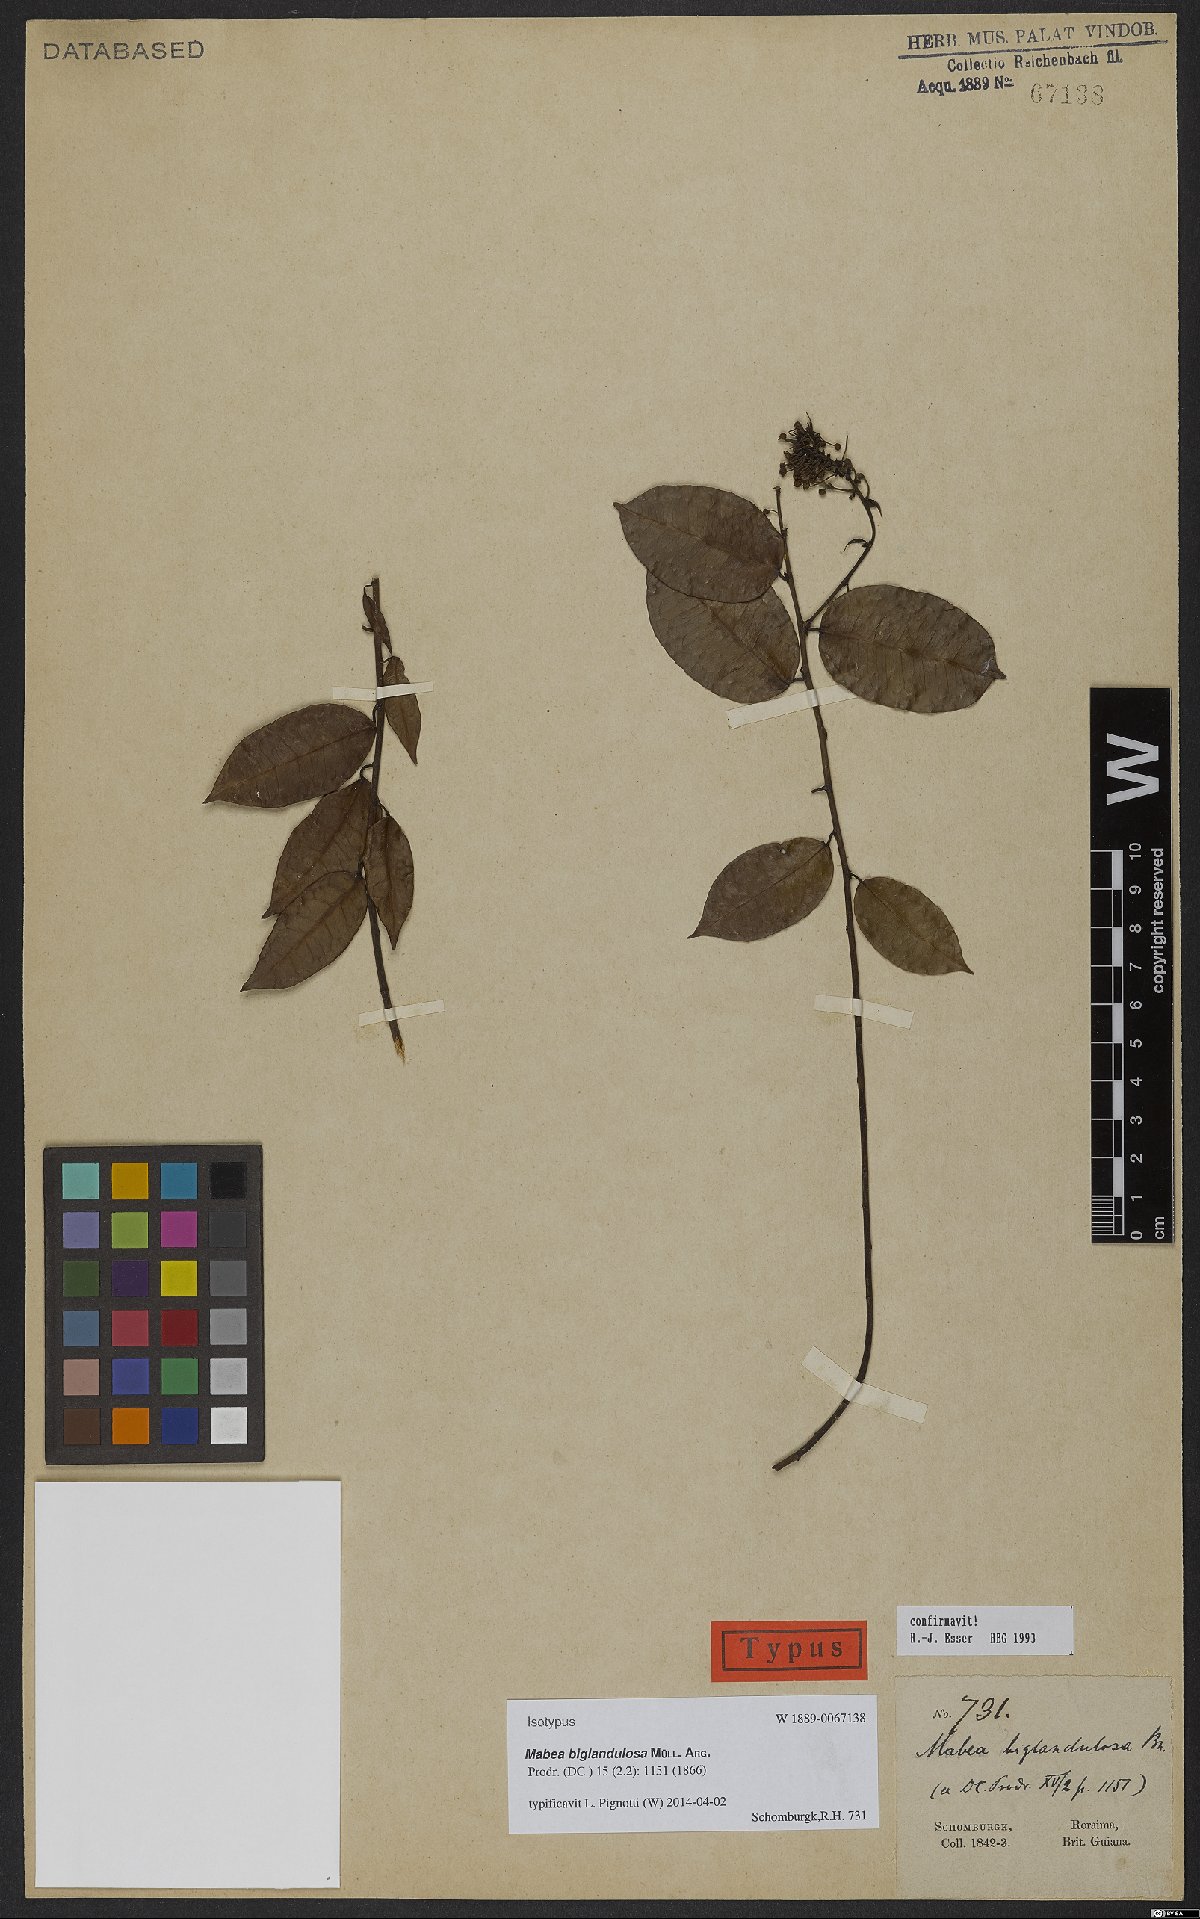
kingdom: Plantae
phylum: Tracheophyta
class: Magnoliopsida
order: Malpighiales
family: Euphorbiaceae
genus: Mabea
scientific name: Mabea biglandulosa
